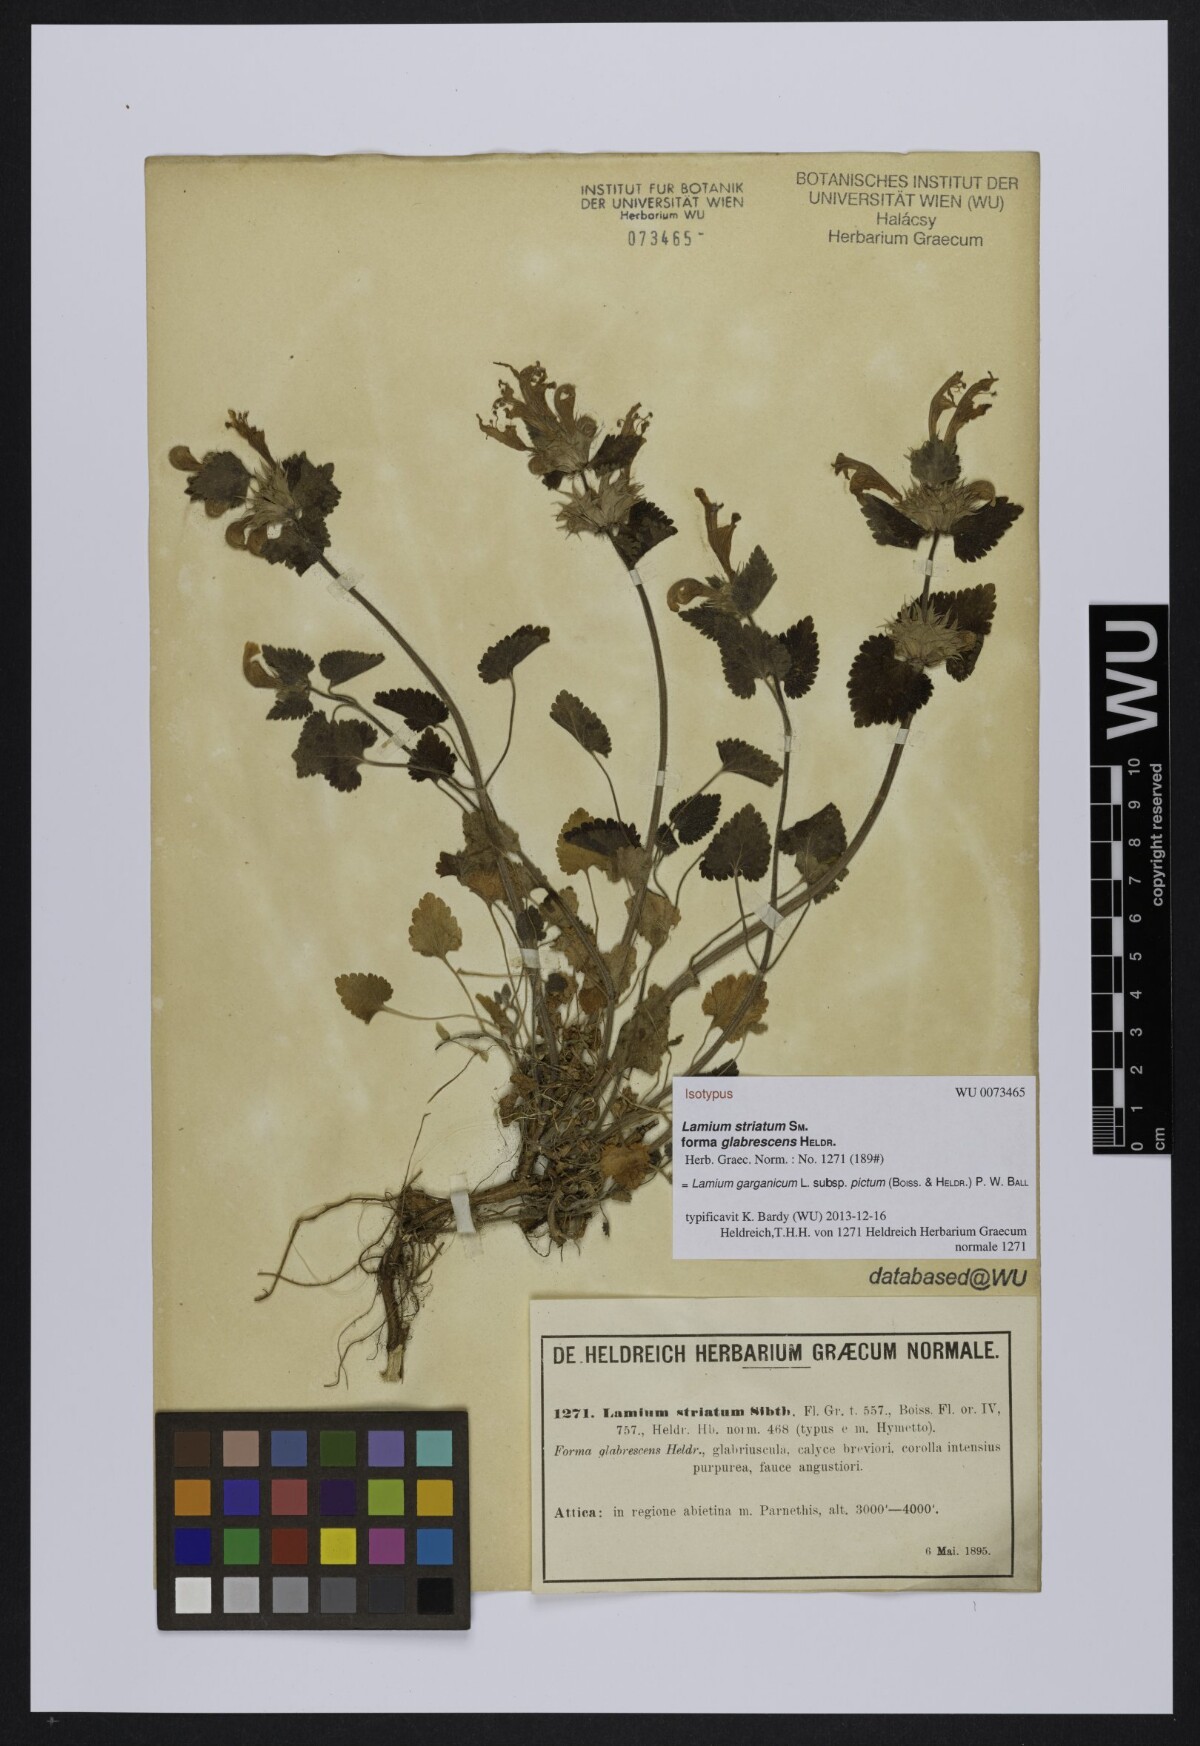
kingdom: Plantae
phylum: Tracheophyta
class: Magnoliopsida
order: Lamiales
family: Lamiaceae
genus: Lamium
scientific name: Lamium garganicum
